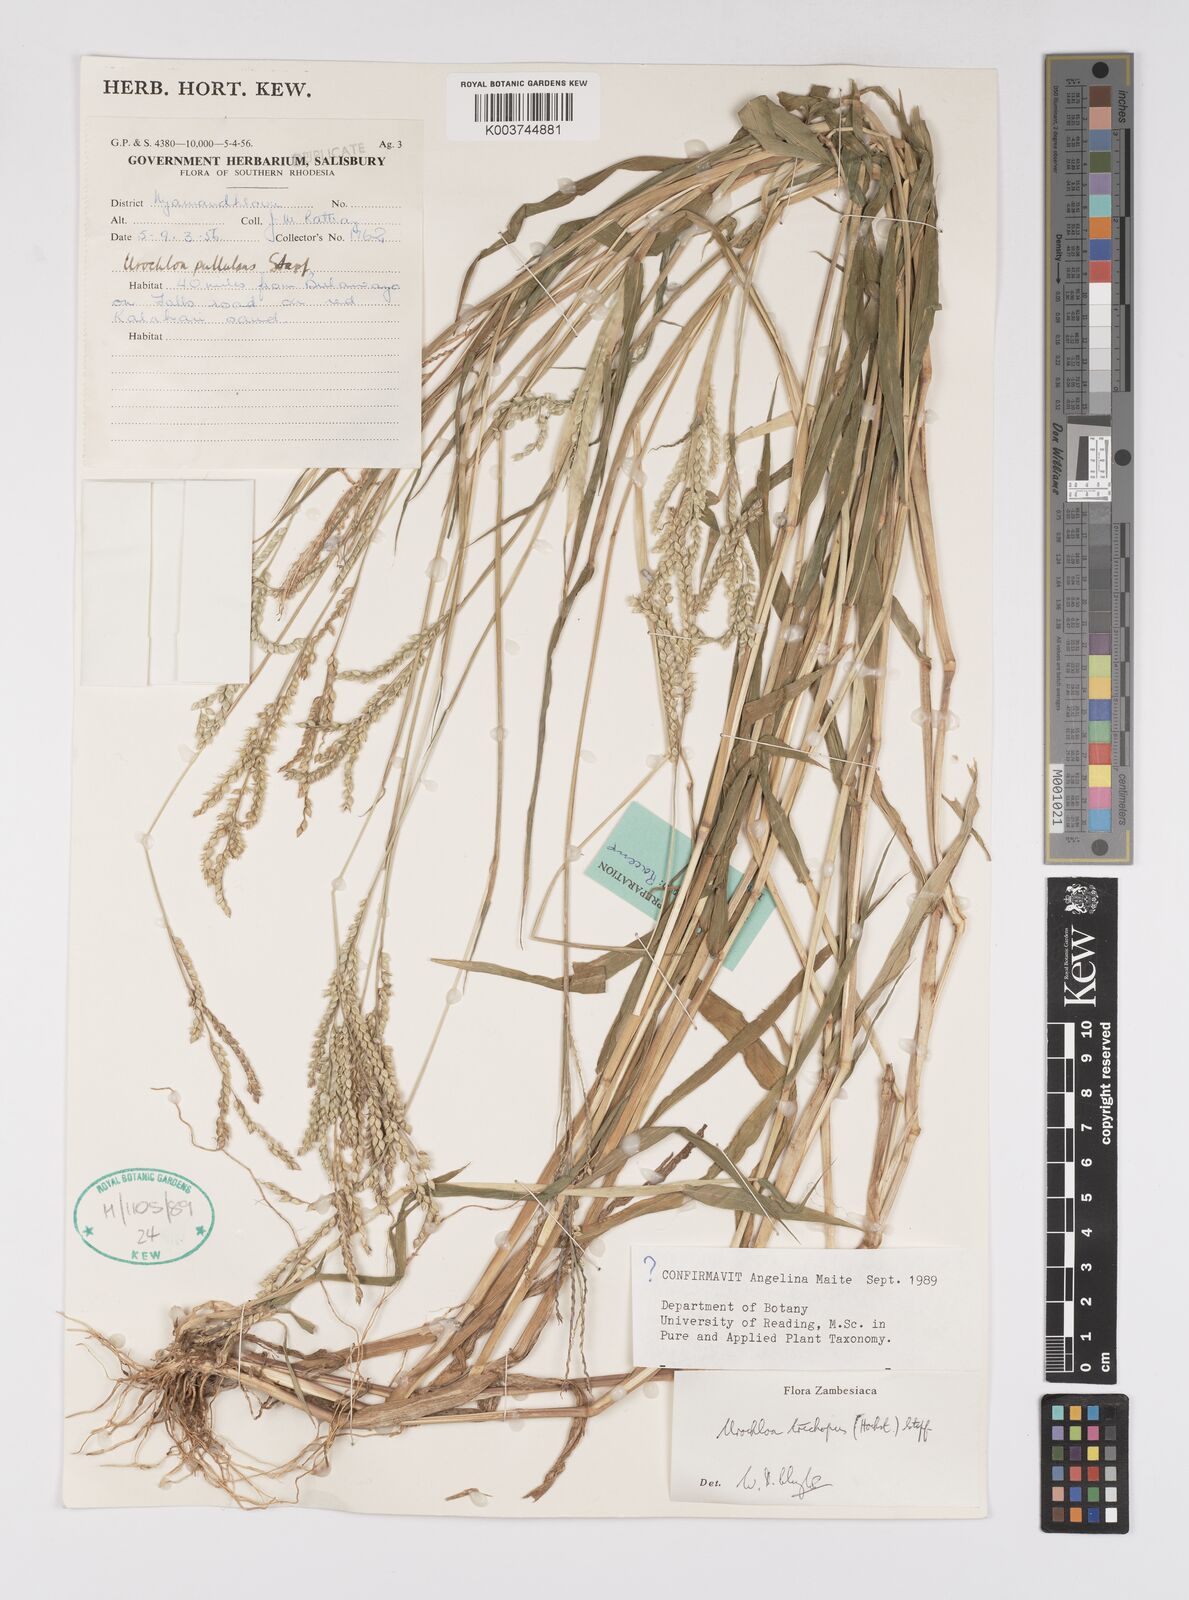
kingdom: Plantae
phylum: Tracheophyta
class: Liliopsida
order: Poales
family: Poaceae
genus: Urochloa
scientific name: Urochloa trichopus
